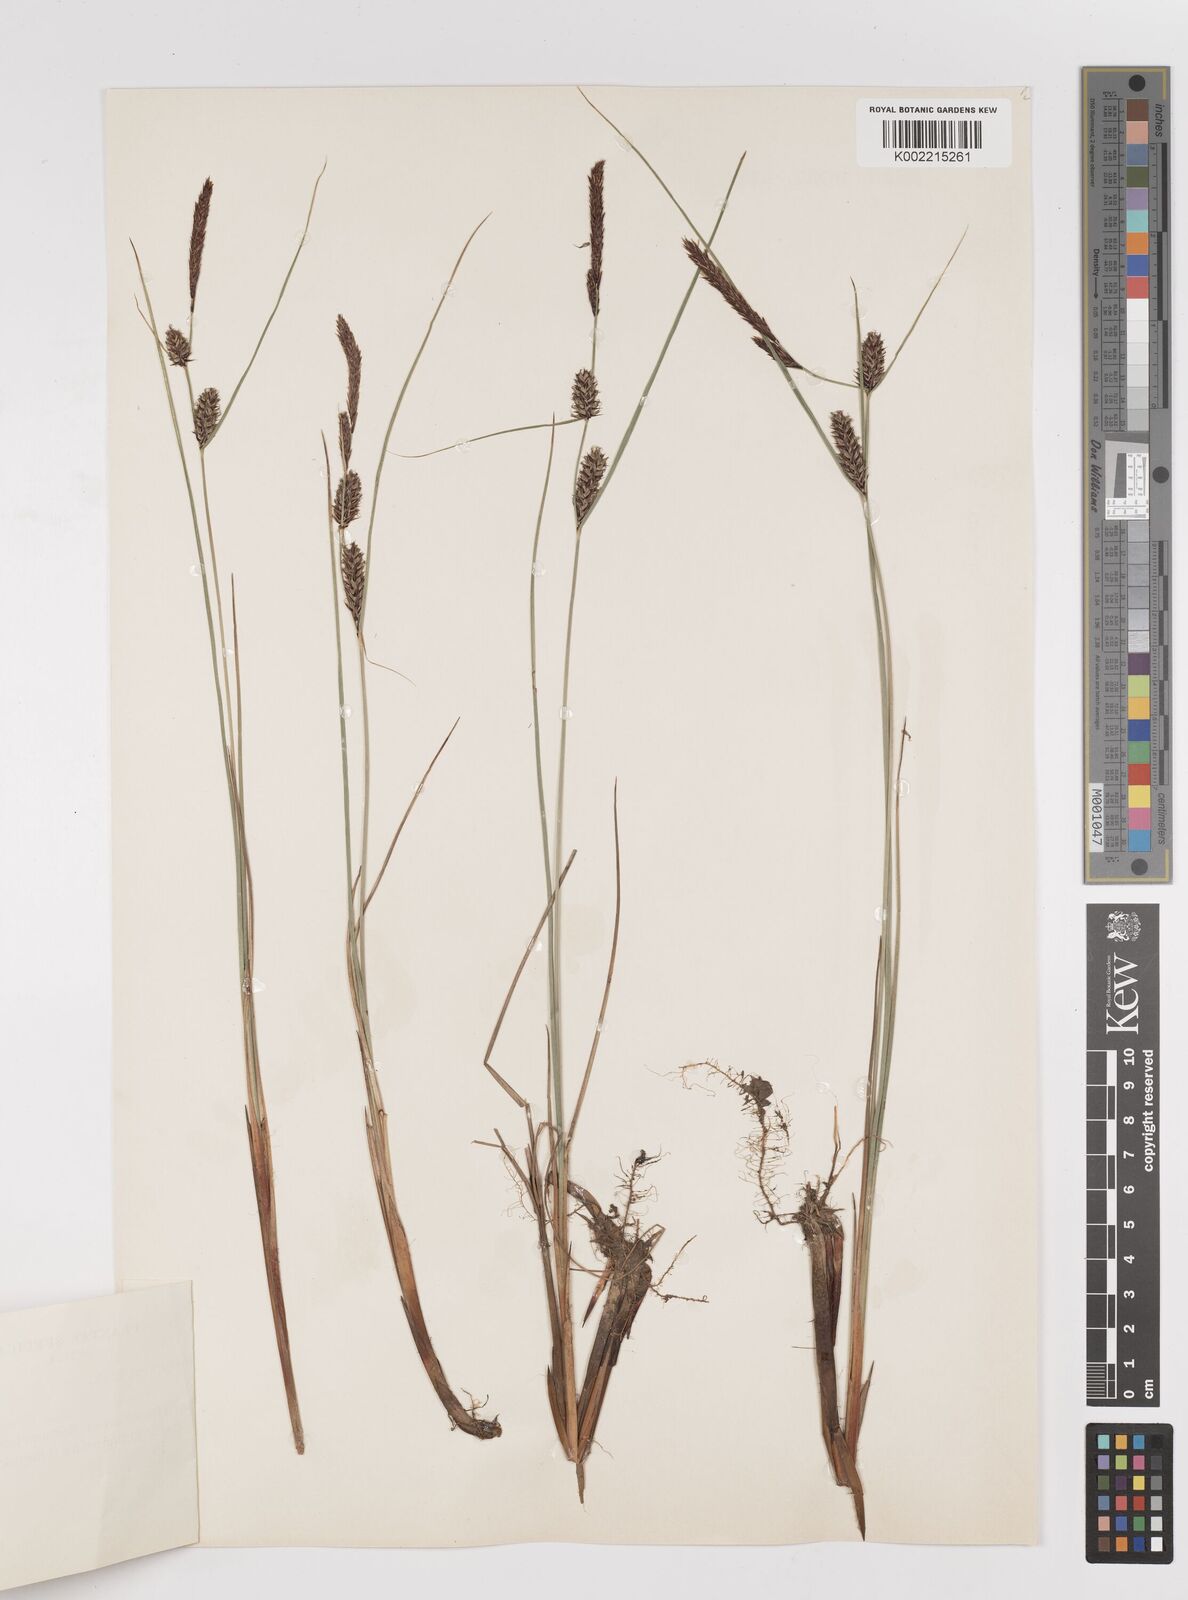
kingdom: Plantae
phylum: Tracheophyta
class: Liliopsida
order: Poales
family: Cyperaceae
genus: Carex
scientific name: Carex lasiocarpa
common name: Slender sedge
